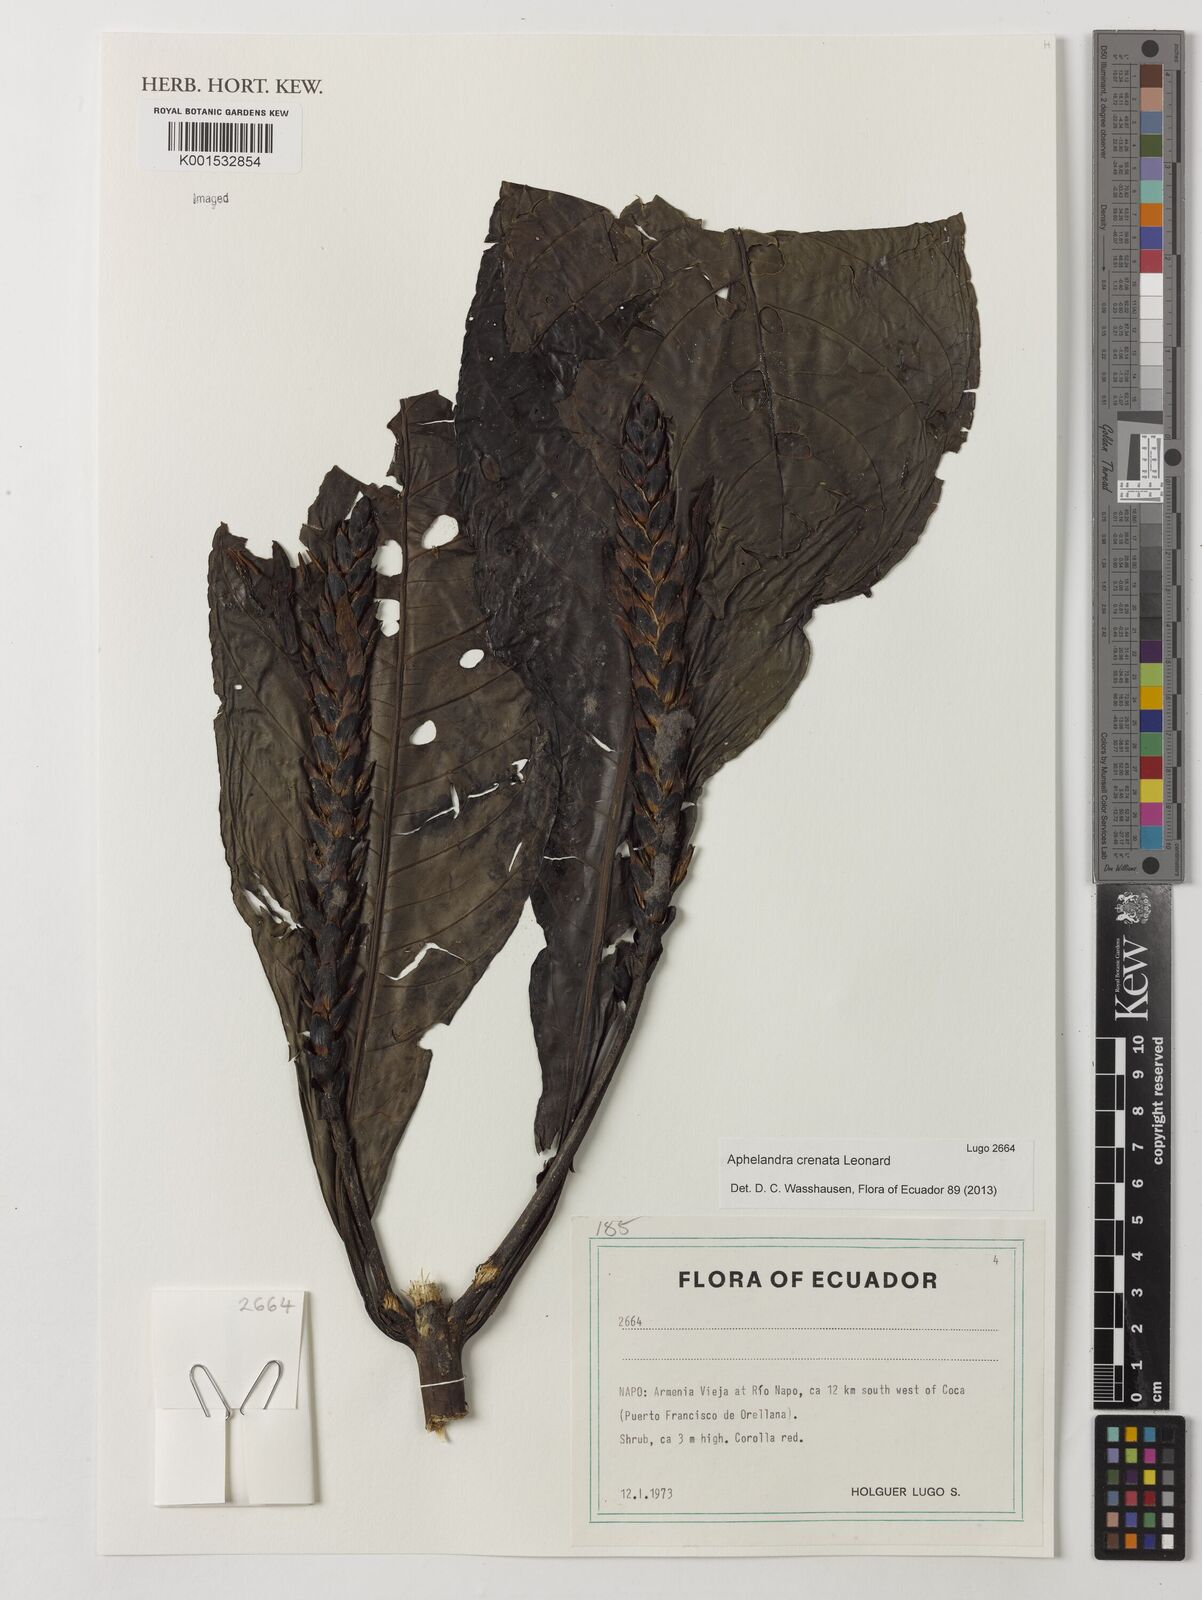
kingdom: Plantae
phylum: Tracheophyta
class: Magnoliopsida
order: Lamiales
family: Acanthaceae
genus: Aphelandra
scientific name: Aphelandra crenata
